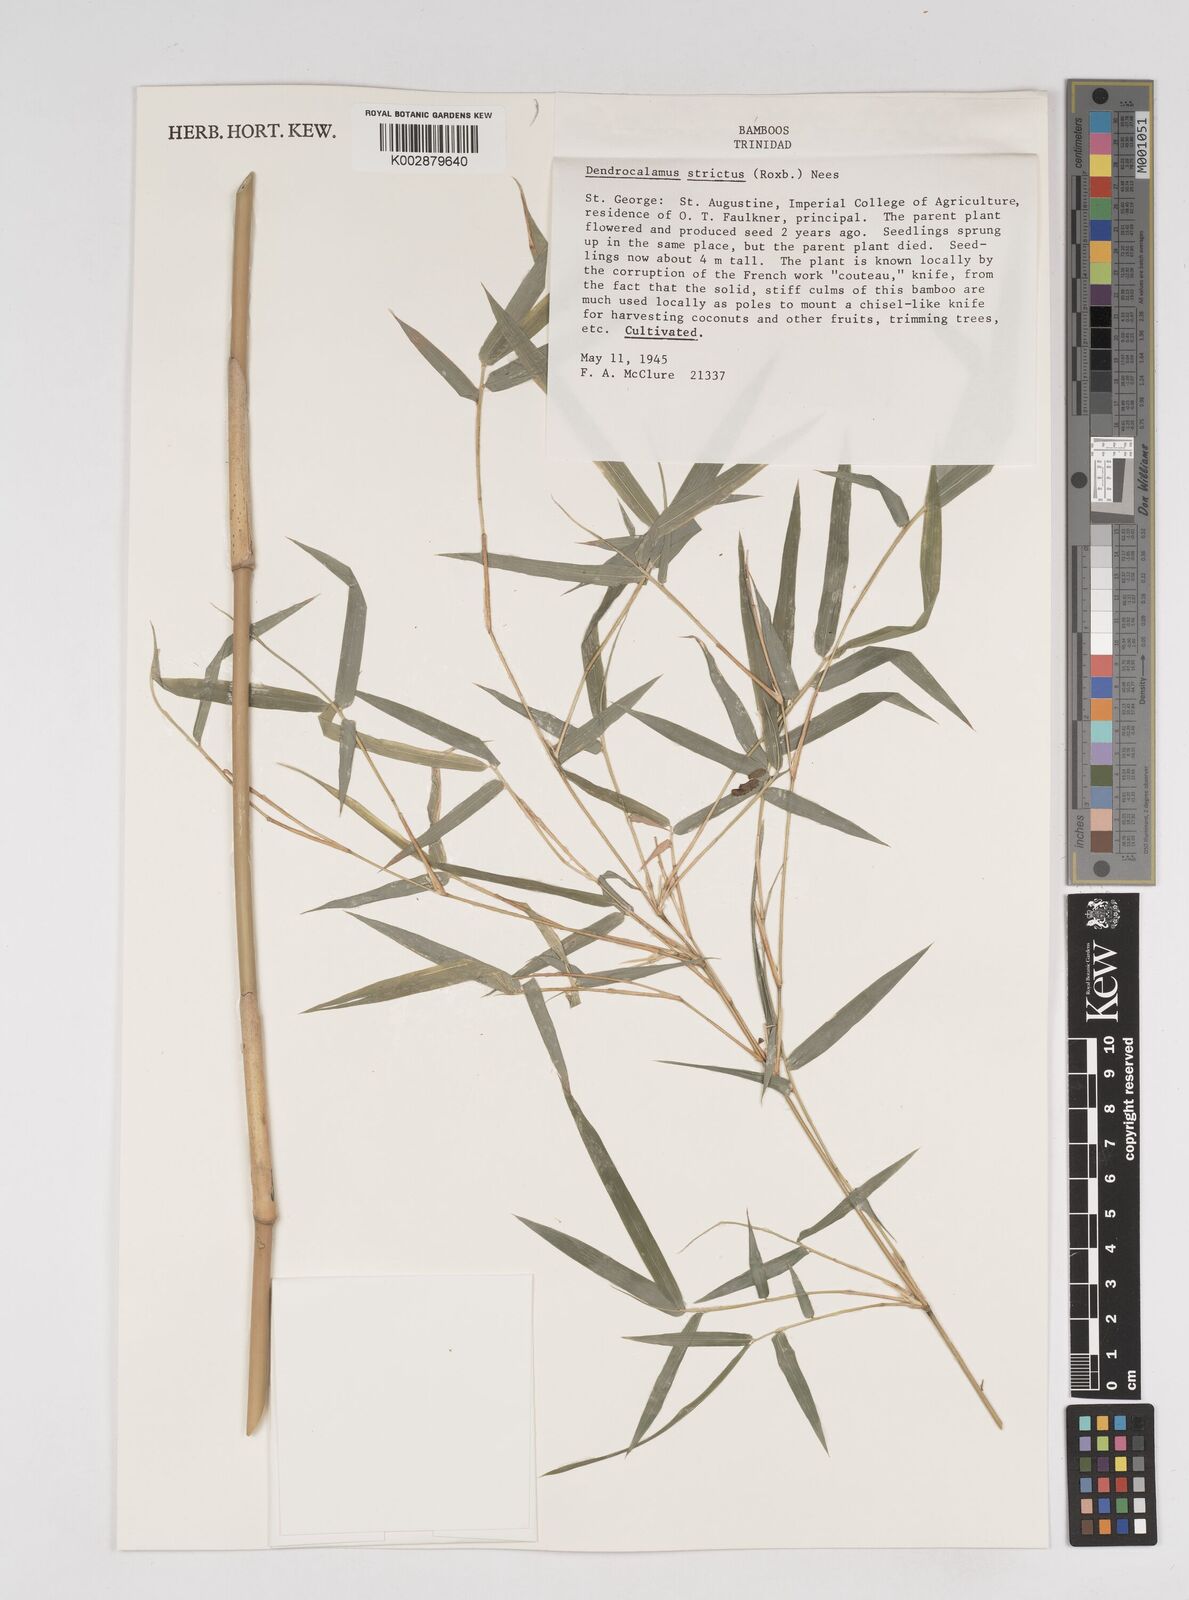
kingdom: Plantae
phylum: Tracheophyta
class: Liliopsida
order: Poales
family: Poaceae
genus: Dendrocalamus
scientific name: Dendrocalamus strictus
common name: Male bamboo
